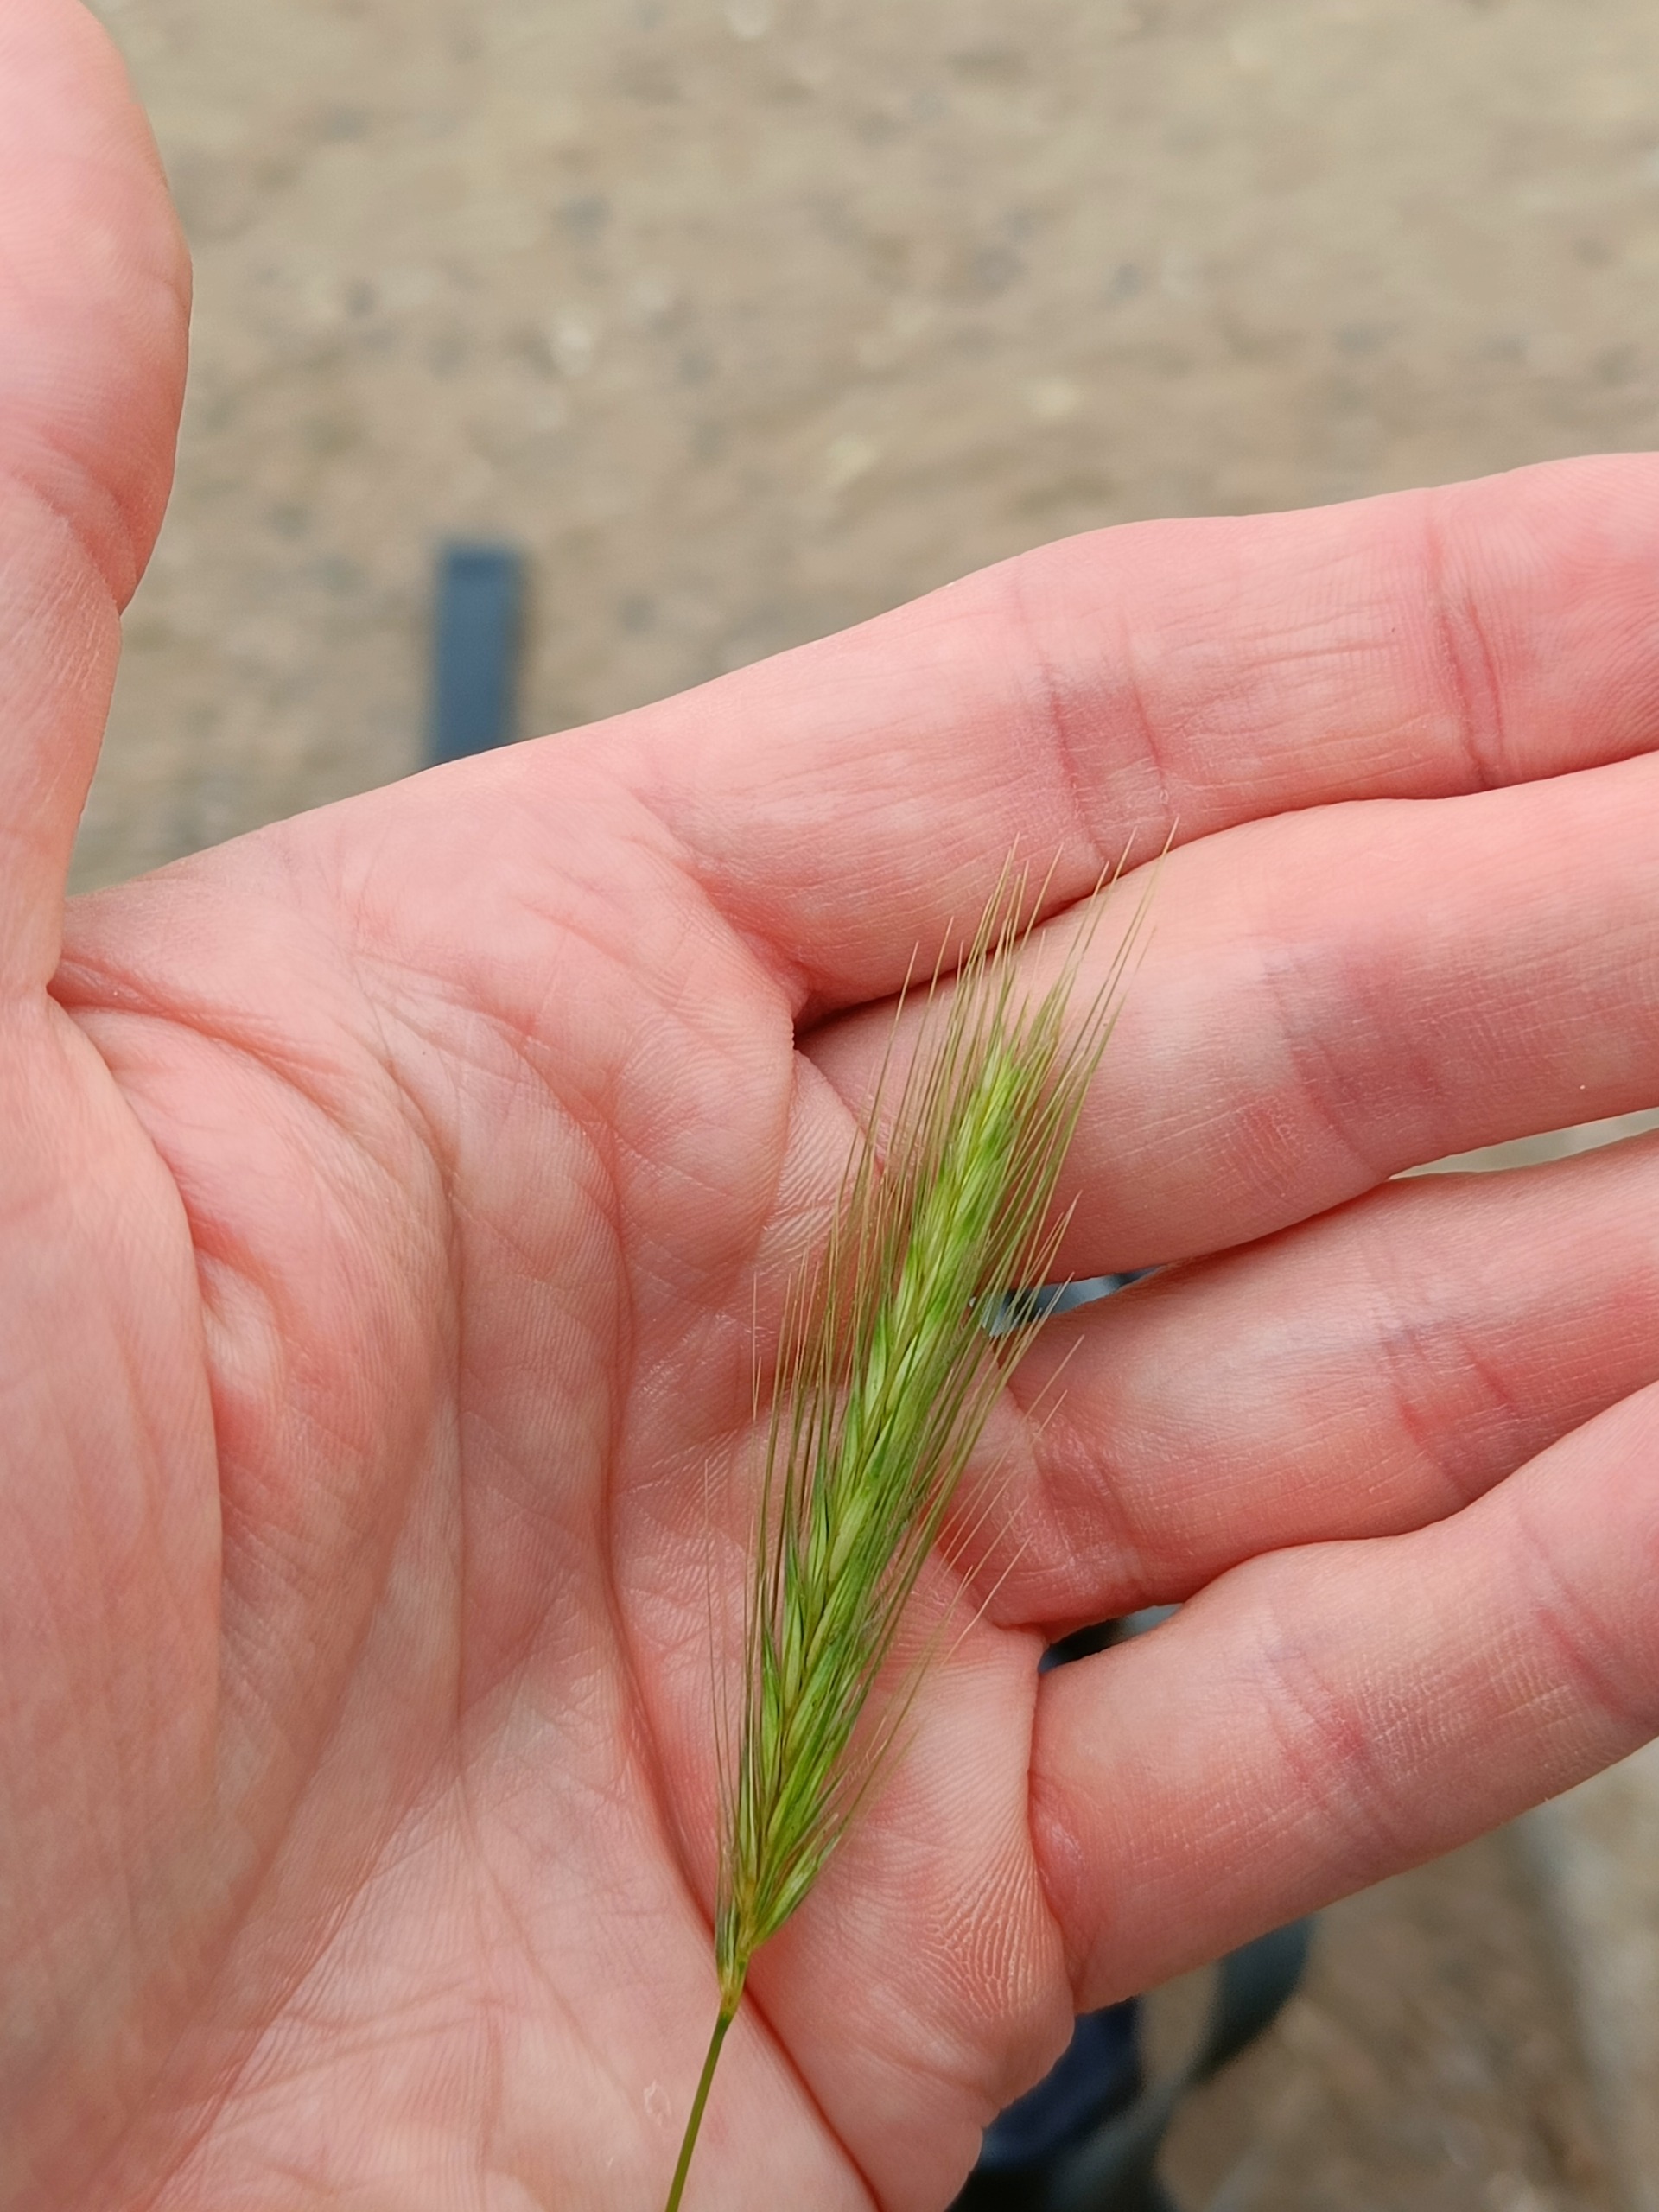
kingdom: Plantae
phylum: Tracheophyta
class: Liliopsida
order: Poales
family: Poaceae
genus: Hordeum
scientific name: Hordeum murinum
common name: Gold byg
